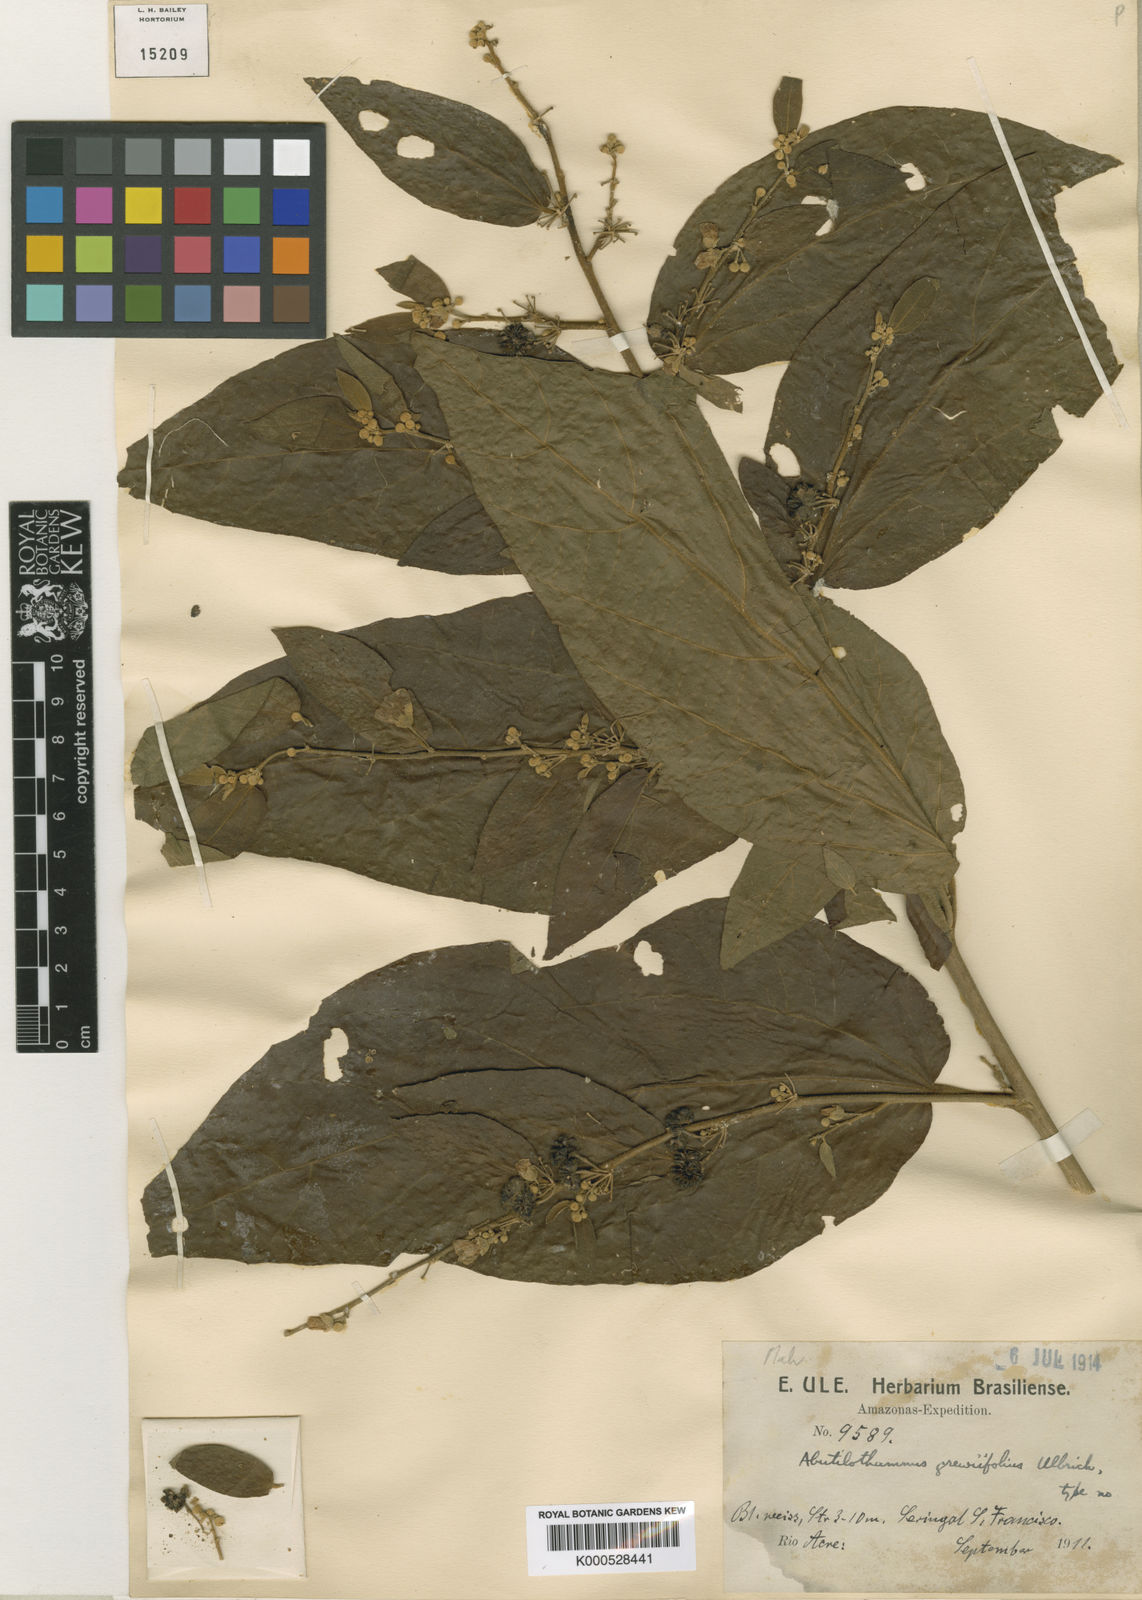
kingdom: Plantae
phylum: Tracheophyta
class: Magnoliopsida
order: Malvales
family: Malvaceae
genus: Bastardiopsis
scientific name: Bastardiopsis grewiifolia
